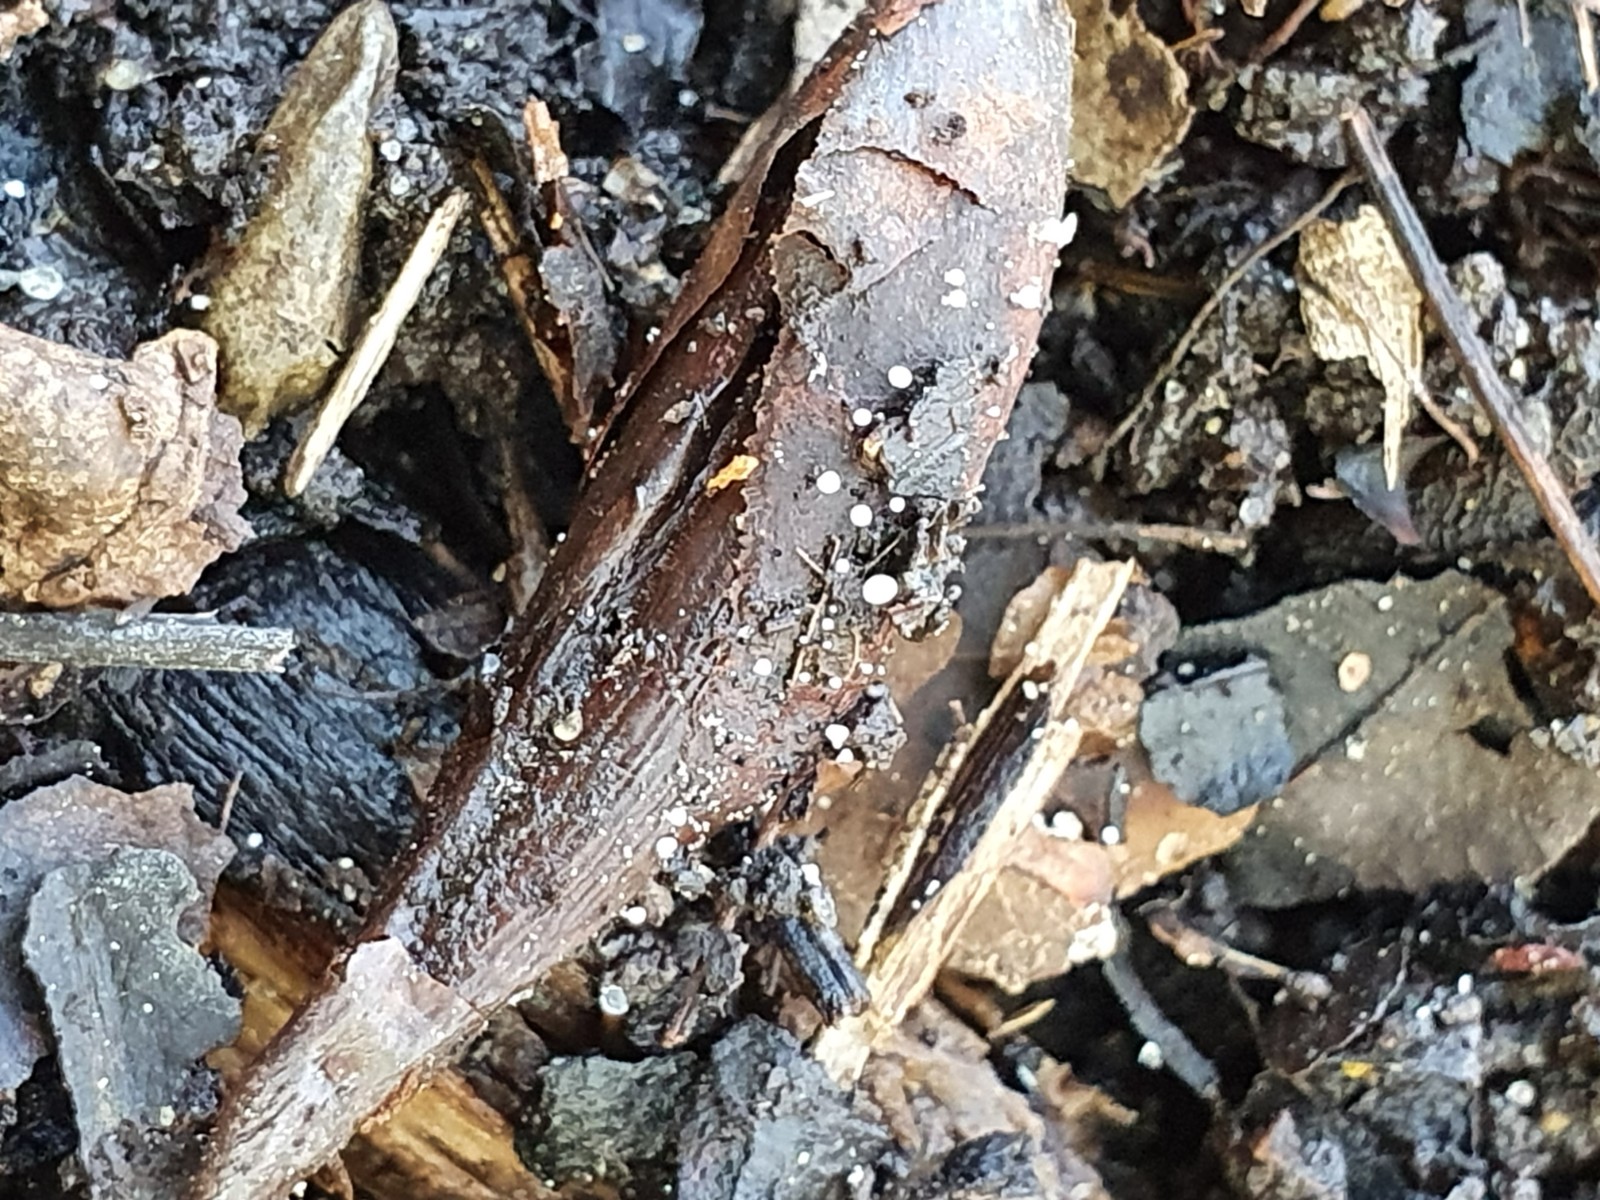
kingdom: Fungi
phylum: Ascomycota
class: Leotiomycetes
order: Helotiales
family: Pezizellaceae
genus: Gemmina
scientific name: Gemmina gemmarum
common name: poppelskæl-gulskive
